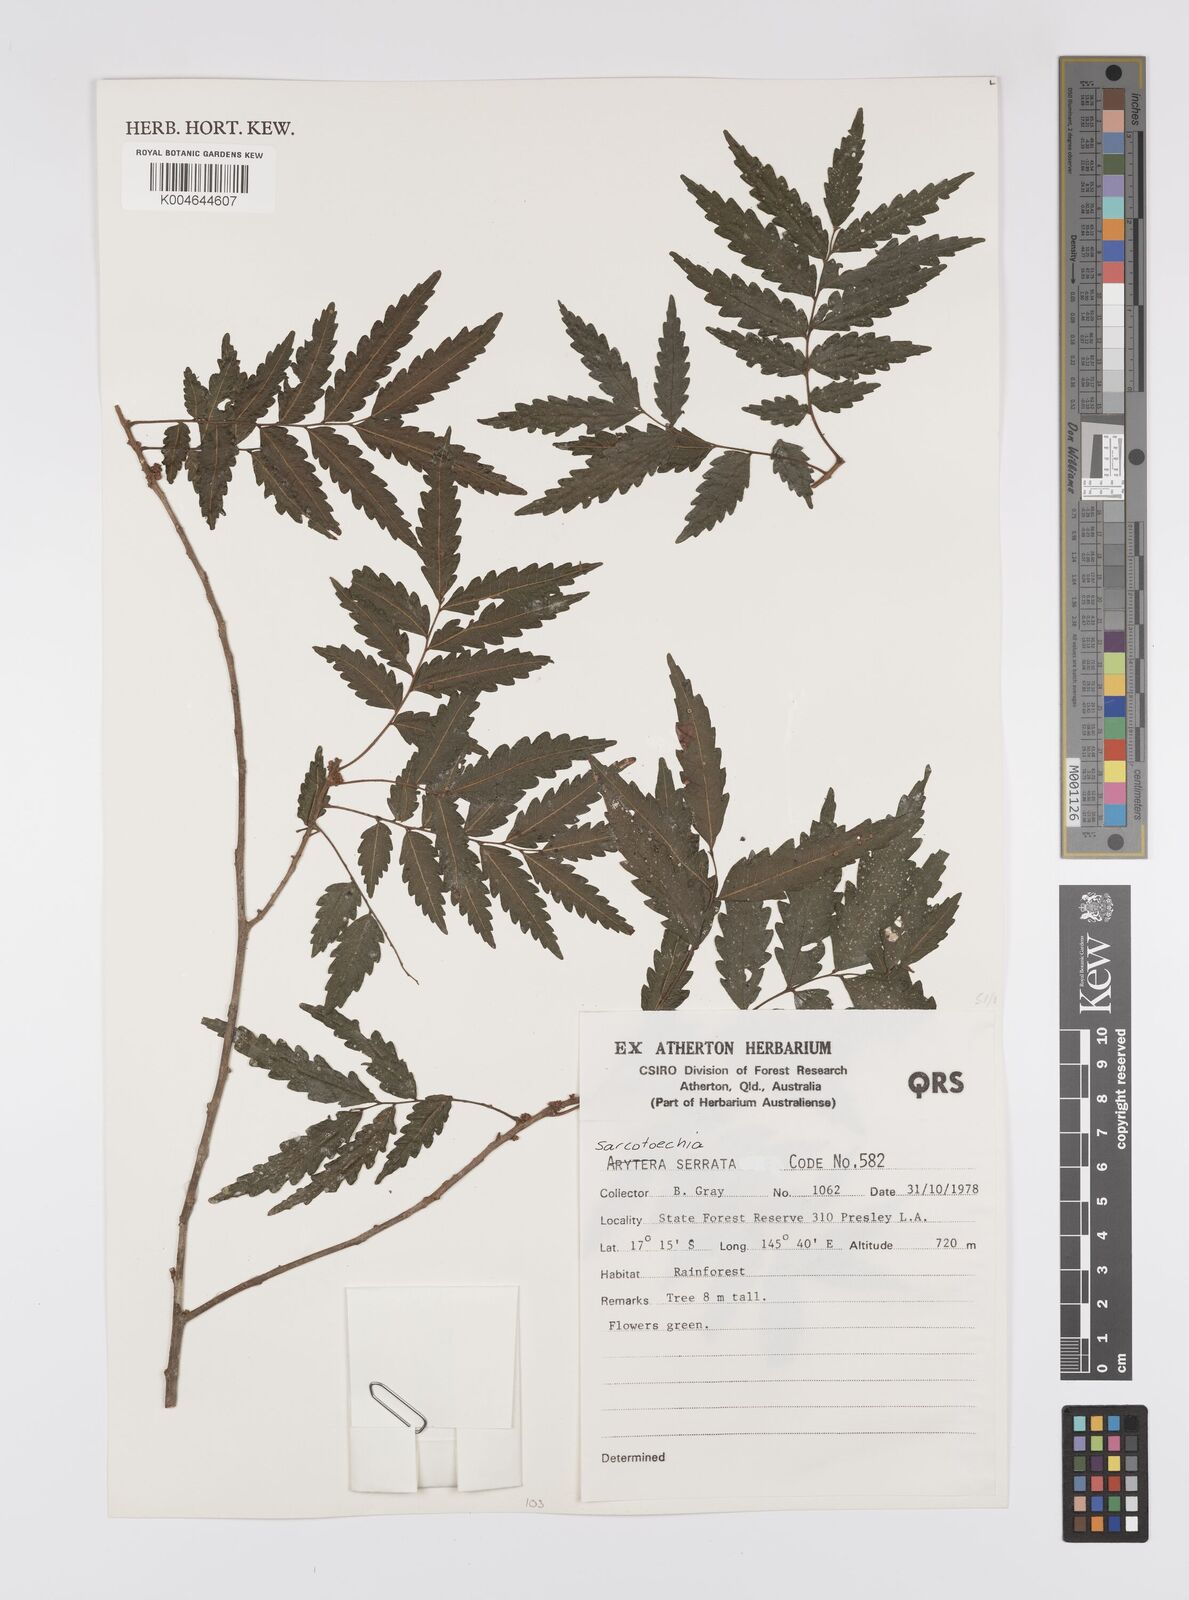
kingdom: Plantae
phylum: Tracheophyta
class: Magnoliopsida
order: Sapindales
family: Sapindaceae
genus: Synima
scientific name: Synima serrata
